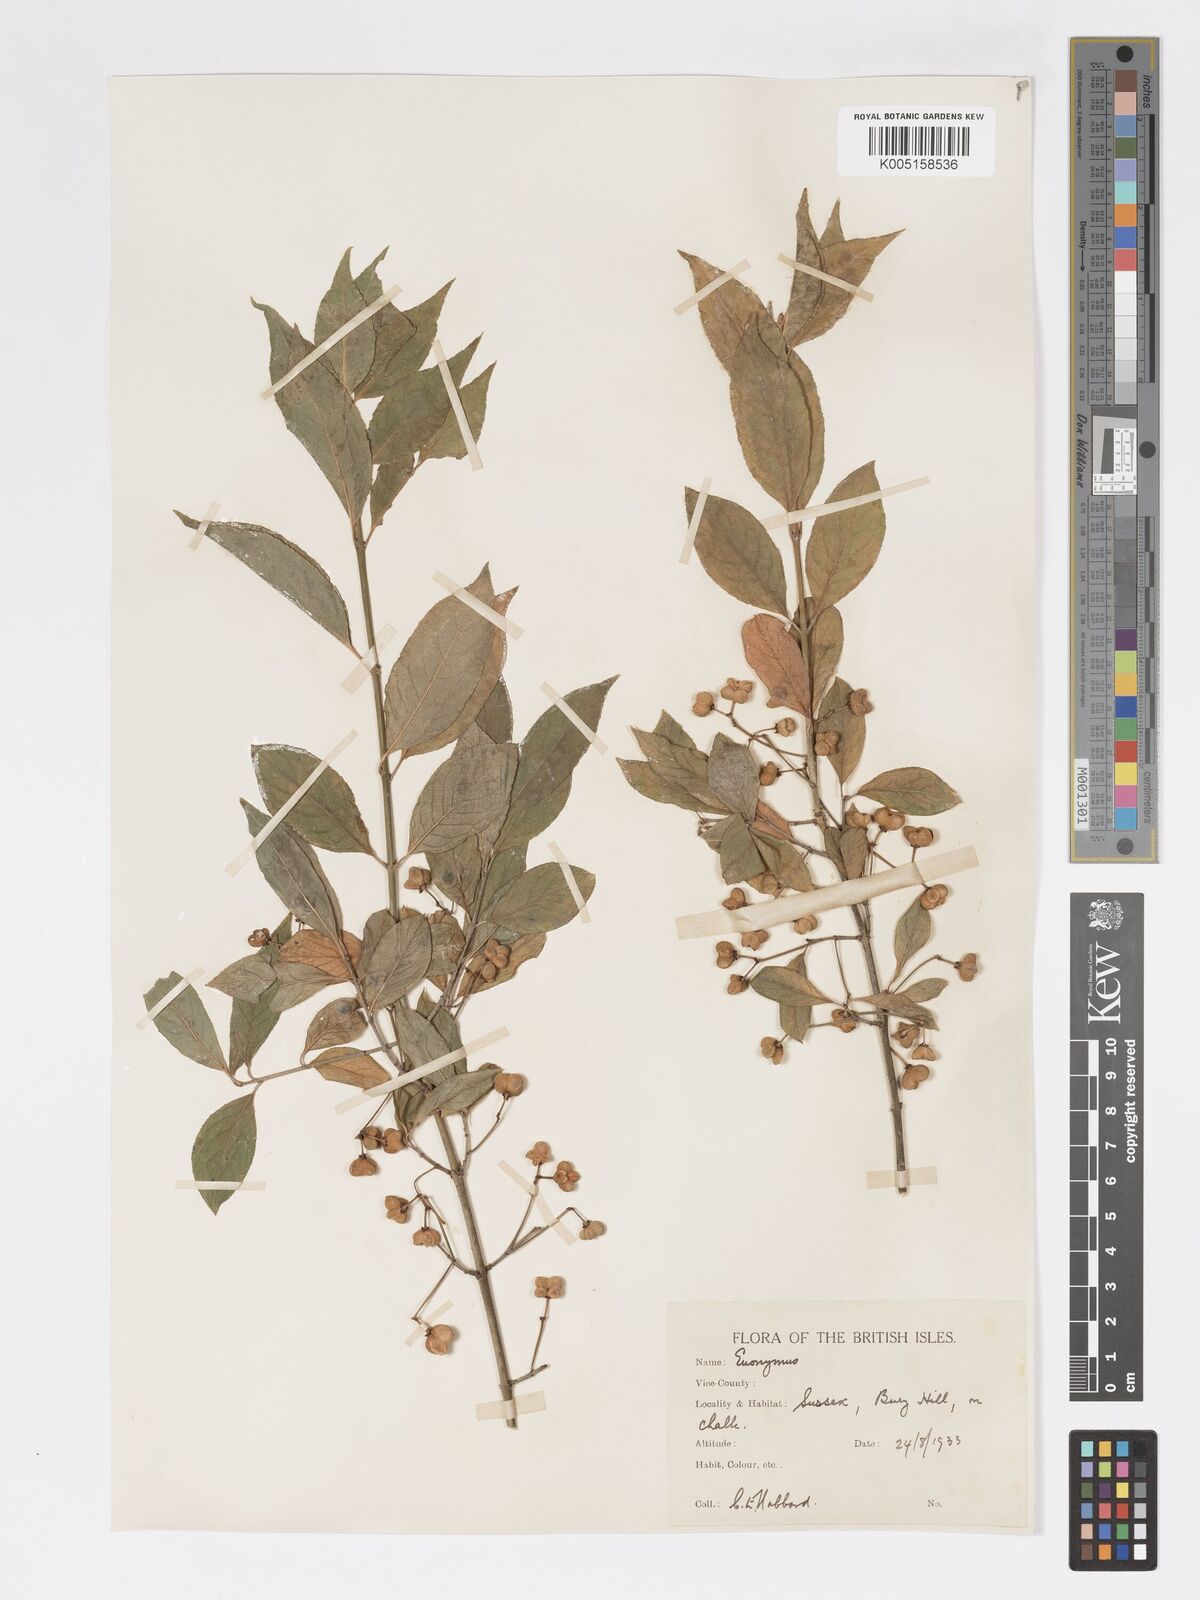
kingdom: Plantae
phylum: Tracheophyta
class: Magnoliopsida
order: Celastrales
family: Celastraceae
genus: Euonymus
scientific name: Euonymus europaeus
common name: Spindle
